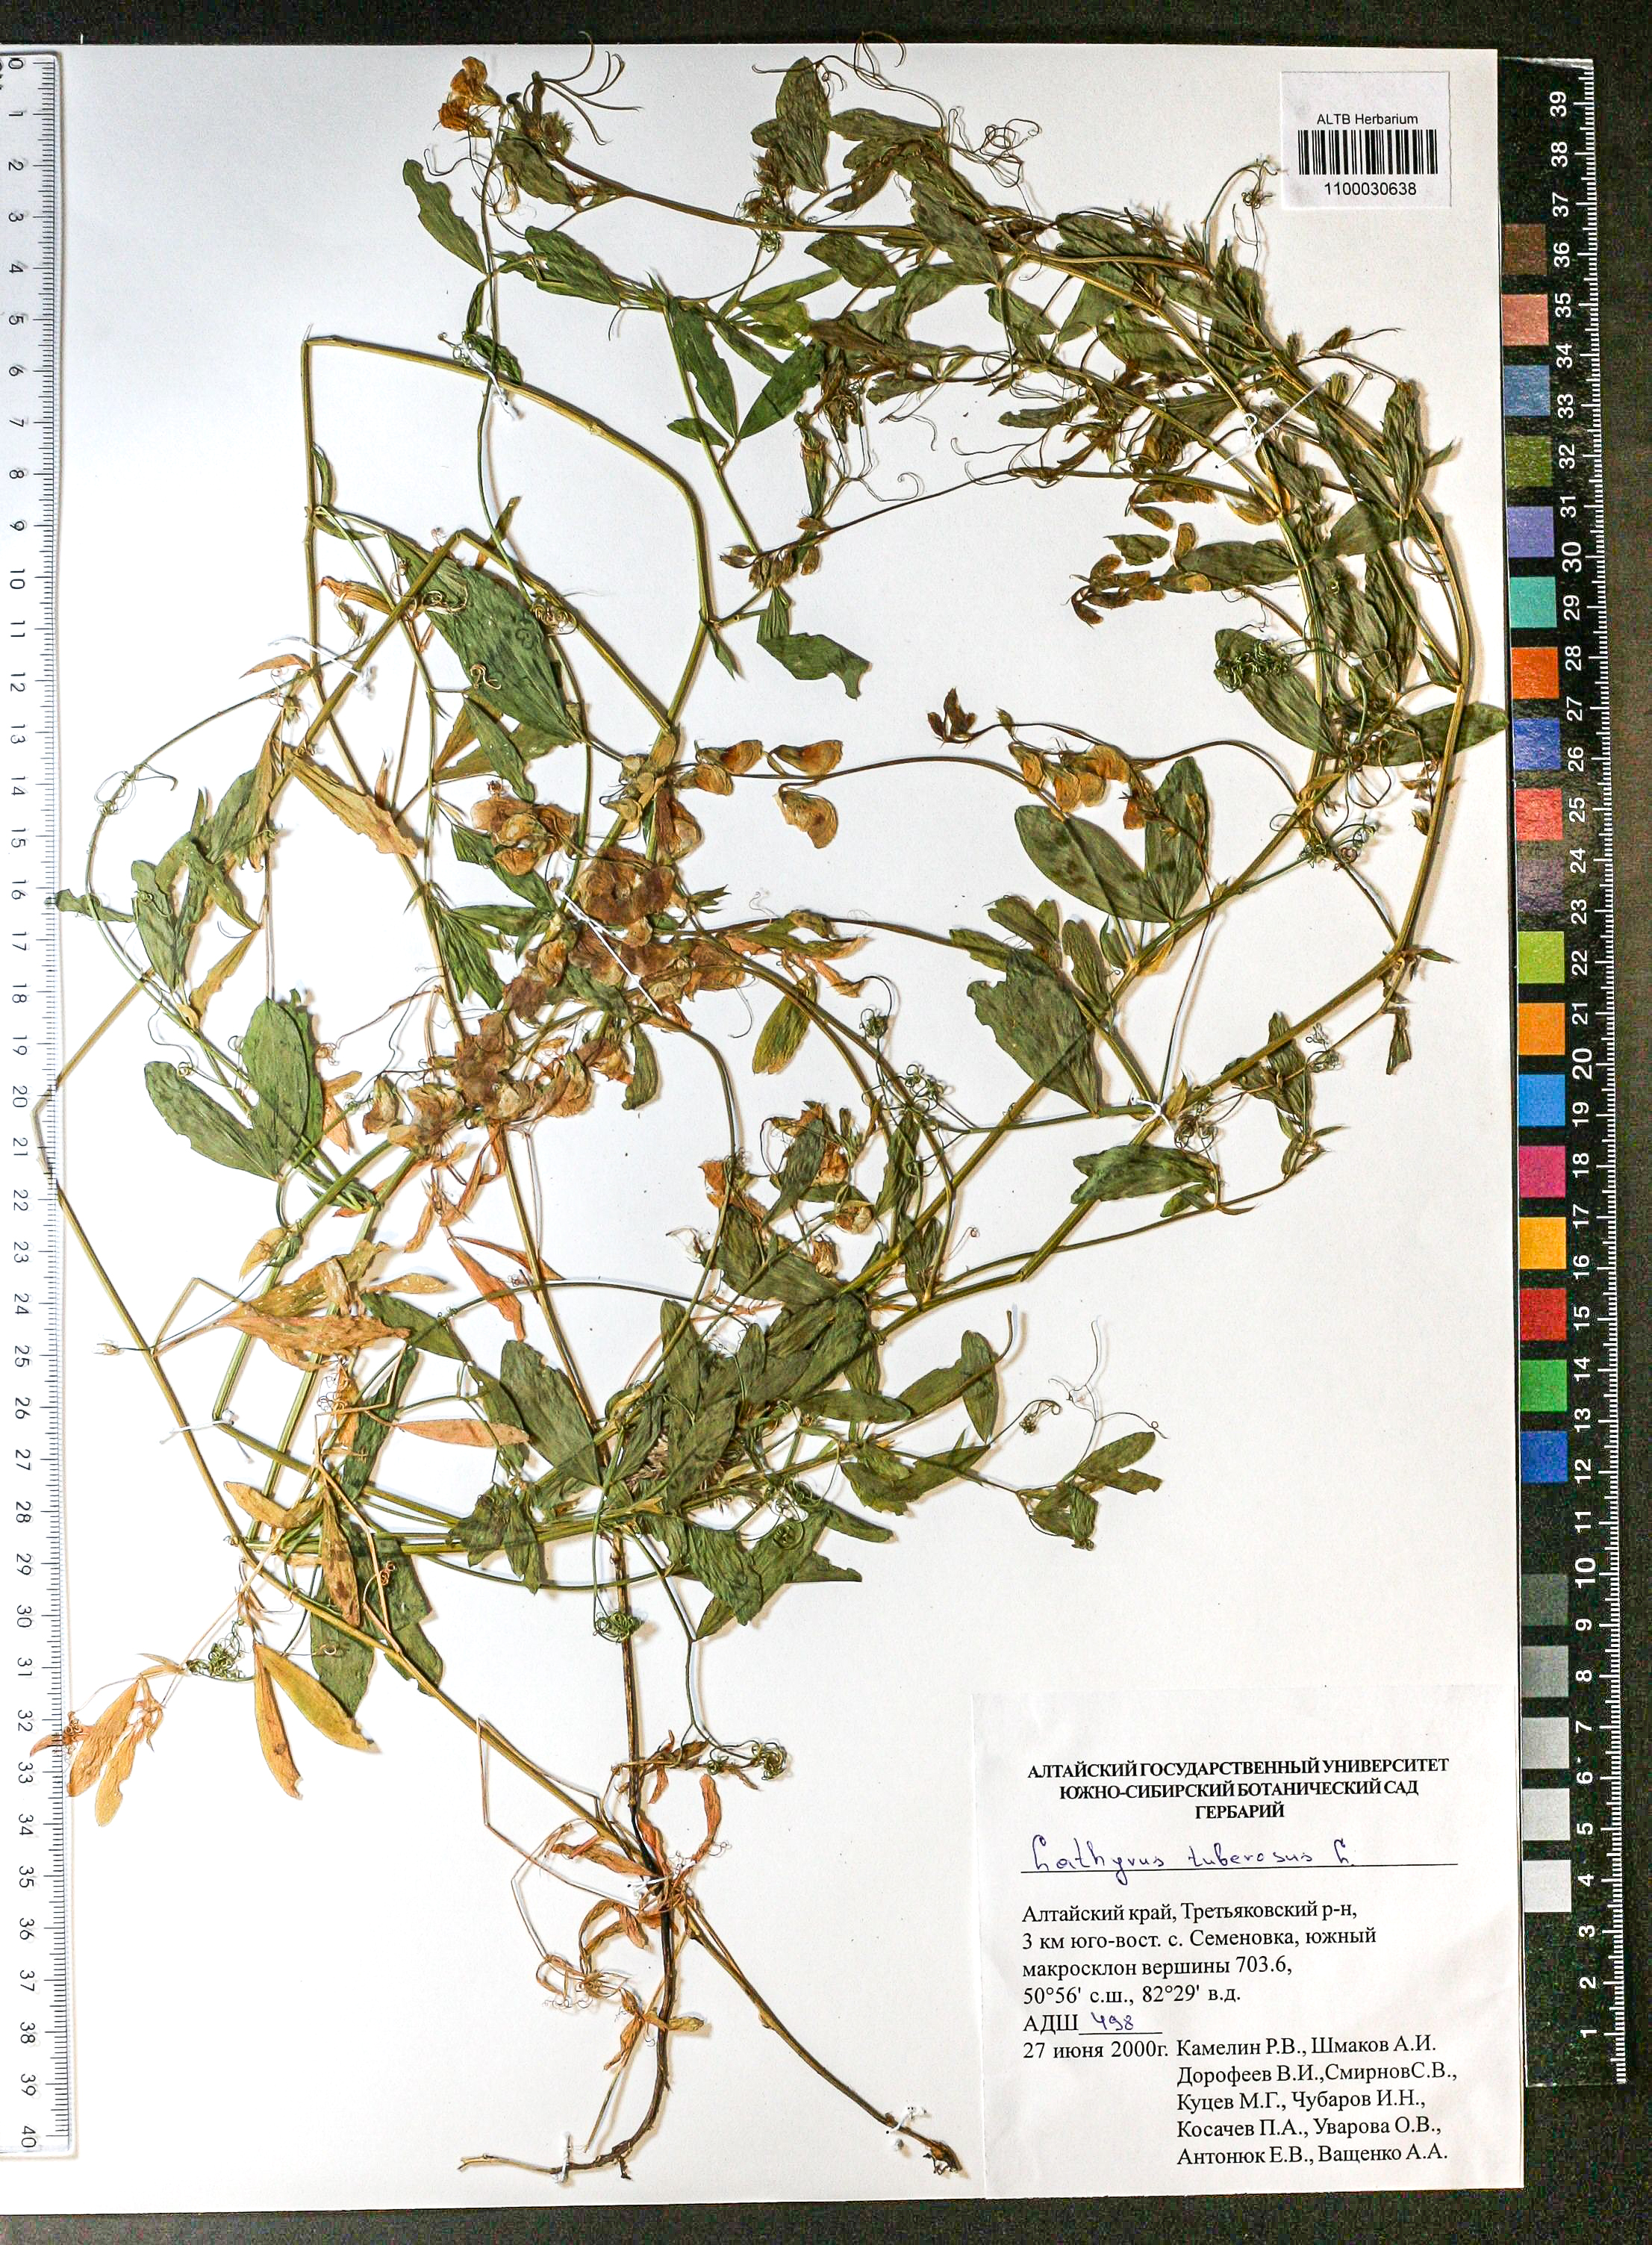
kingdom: Plantae
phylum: Tracheophyta
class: Magnoliopsida
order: Fabales
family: Fabaceae
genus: Lathyrus
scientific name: Lathyrus tuberosus
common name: Tuberous pea
